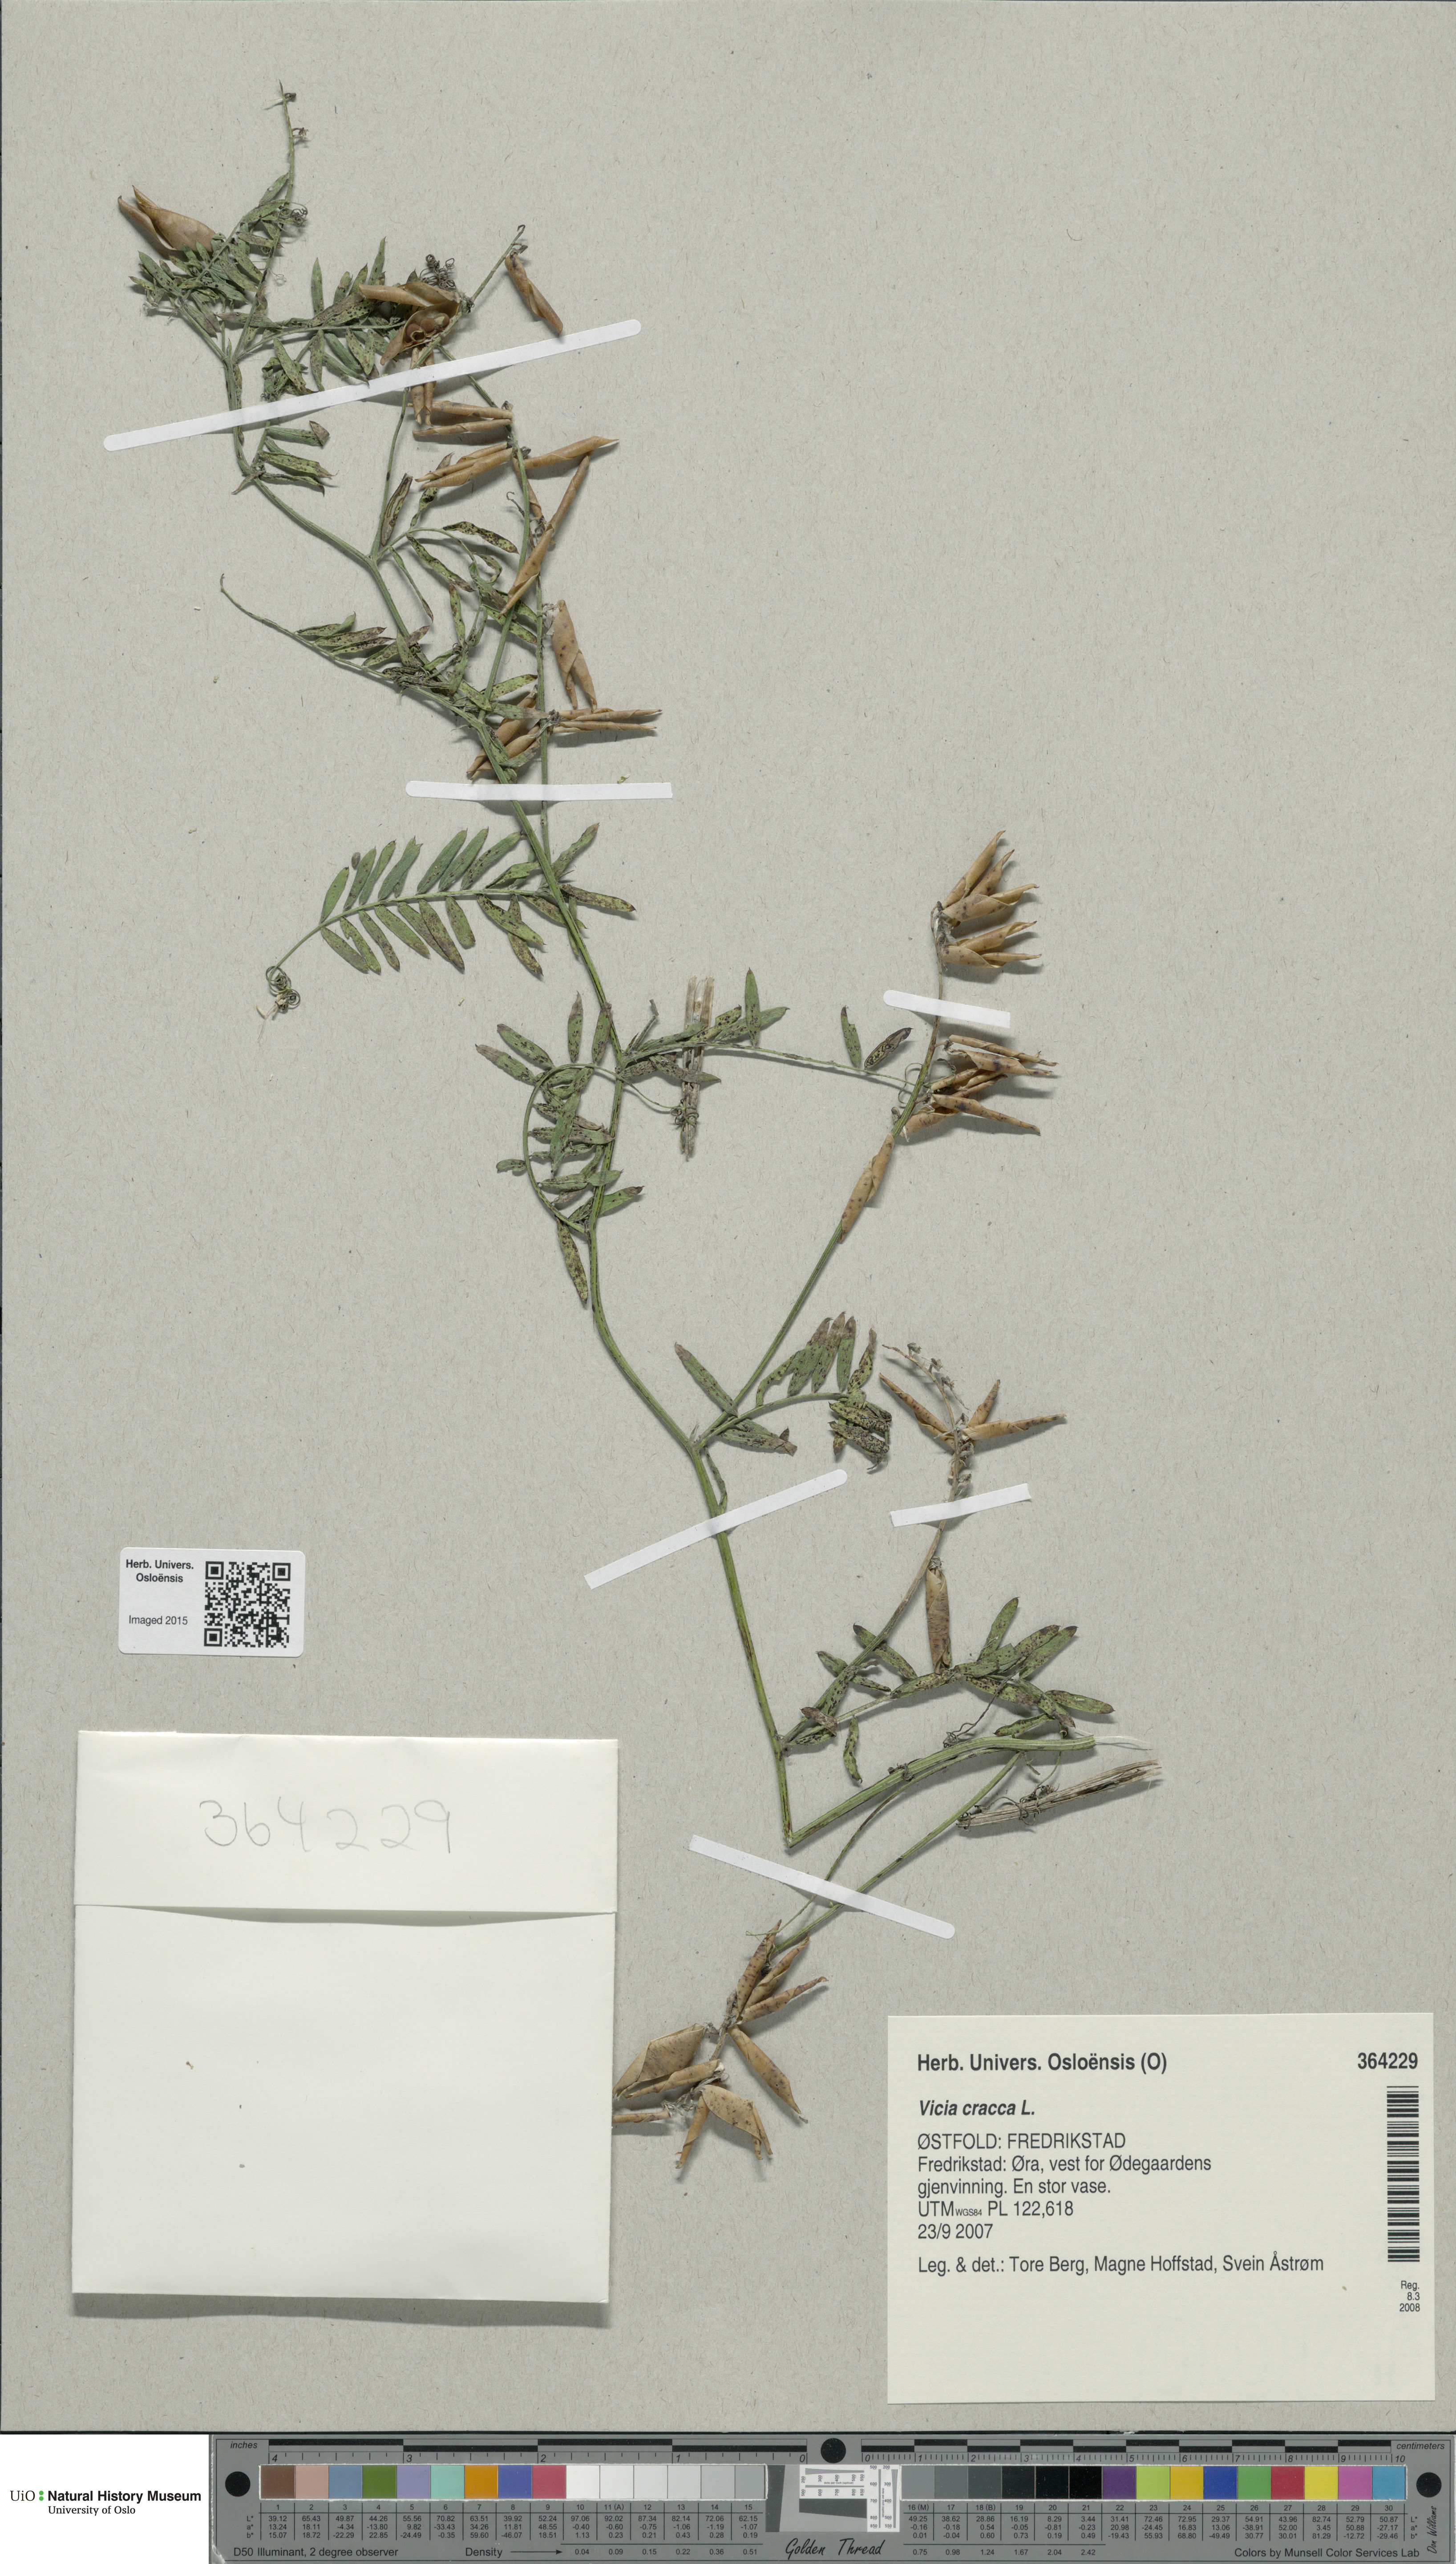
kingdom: Plantae
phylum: Tracheophyta
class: Magnoliopsida
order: Fabales
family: Fabaceae
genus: Vicia
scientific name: Vicia cracca
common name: Bird vetch
